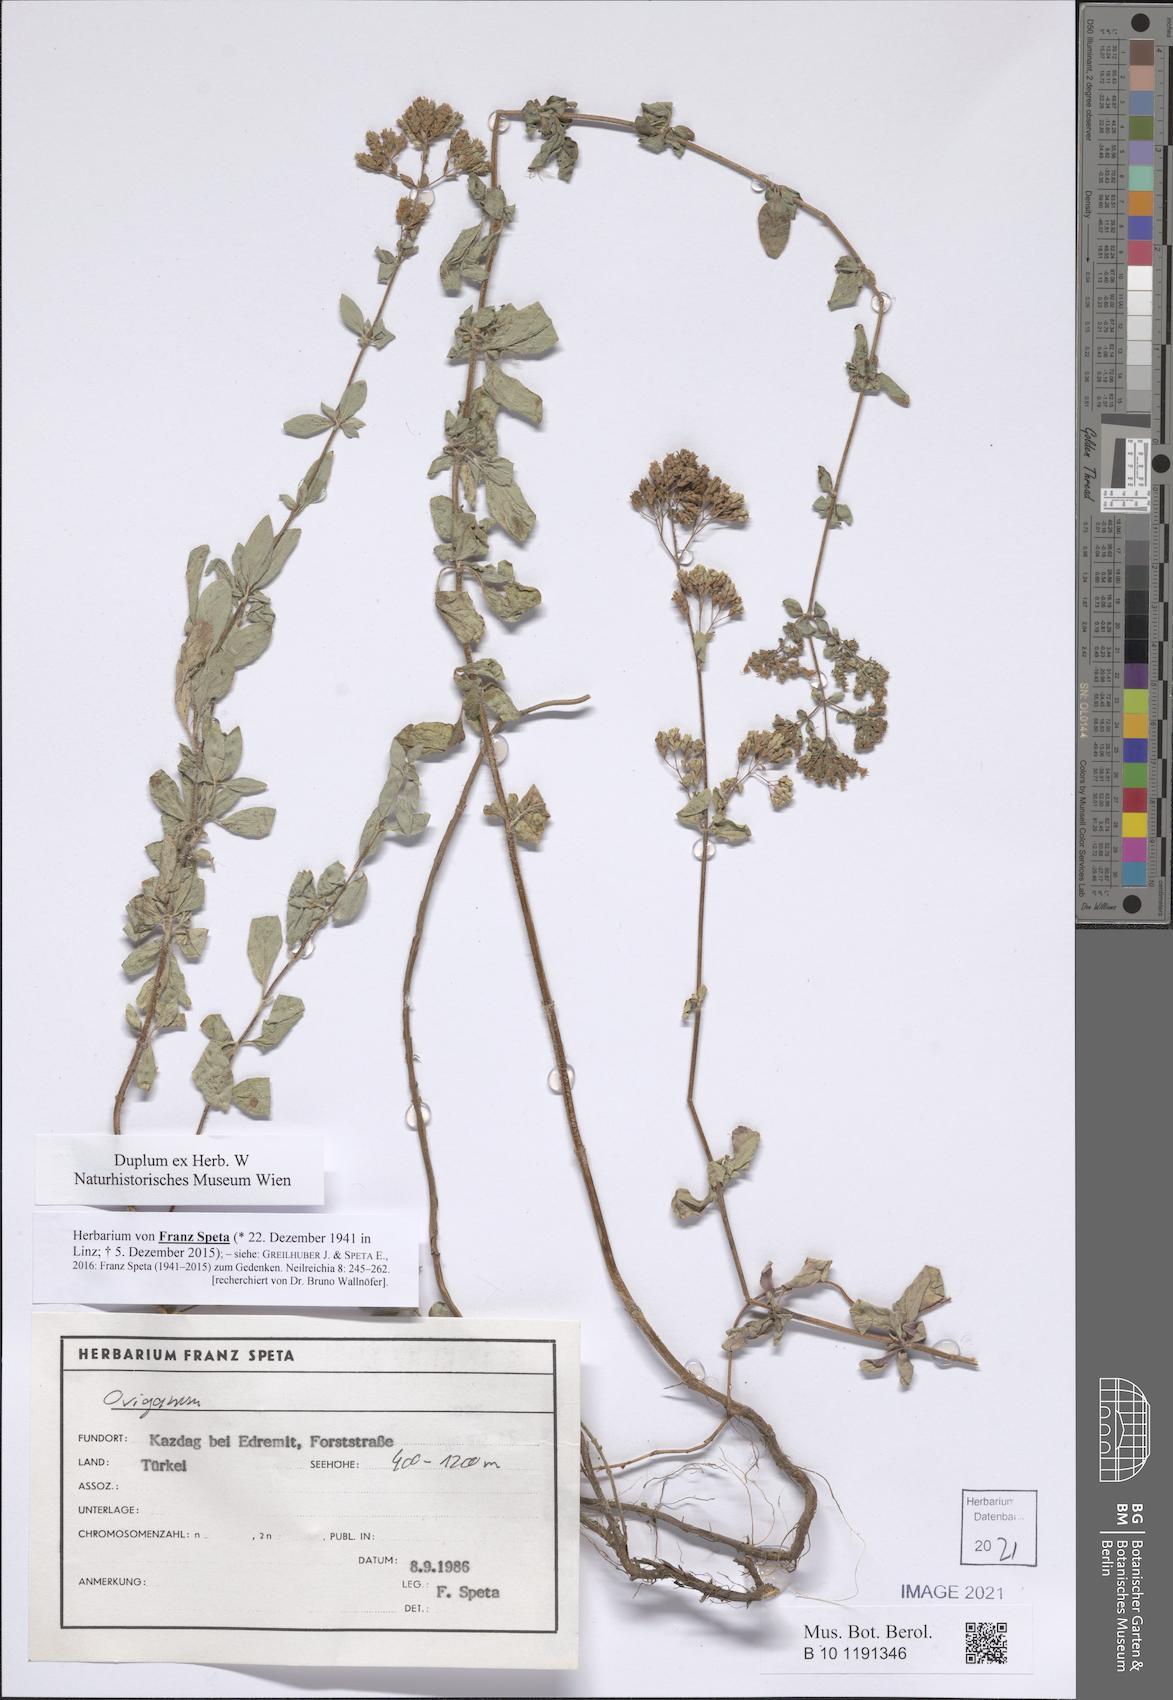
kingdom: Plantae
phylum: Tracheophyta
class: Magnoliopsida
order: Lamiales
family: Lamiaceae
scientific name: Lamiaceae
